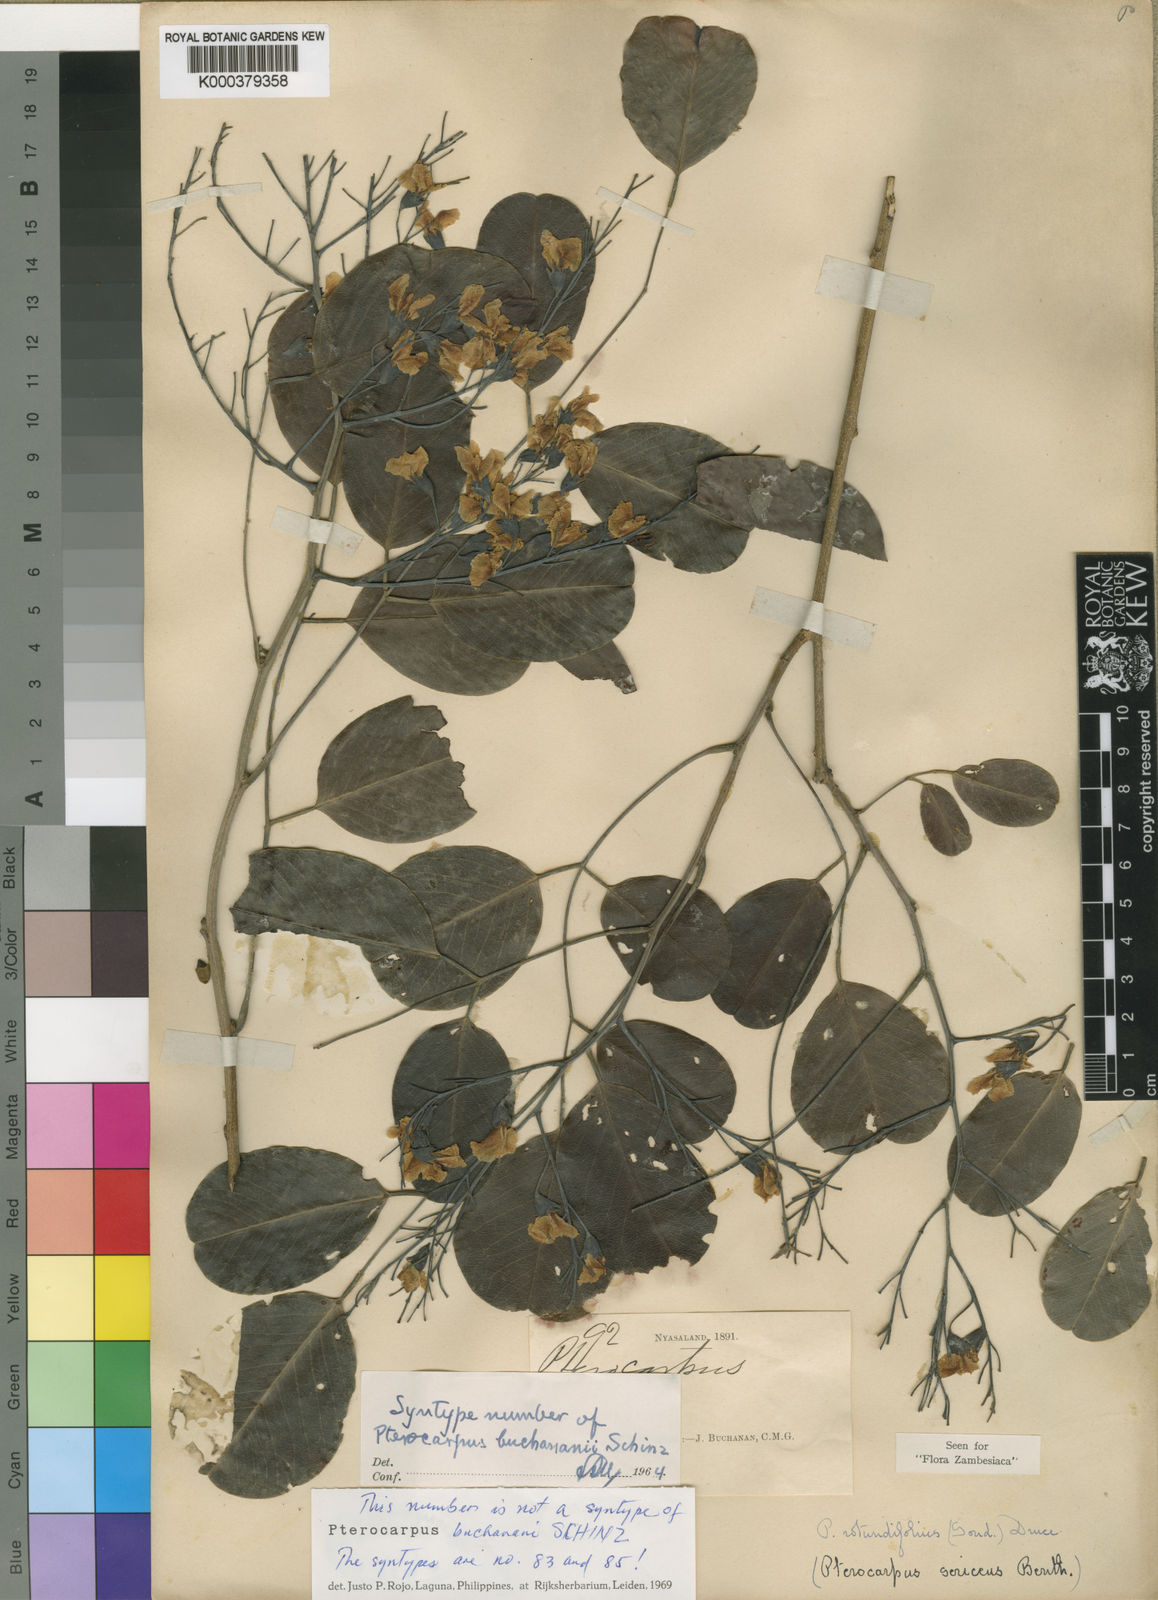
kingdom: Plantae
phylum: Tracheophyta
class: Magnoliopsida
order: Fabales
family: Fabaceae
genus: Pterocarpus
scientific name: Pterocarpus rotundifolius
